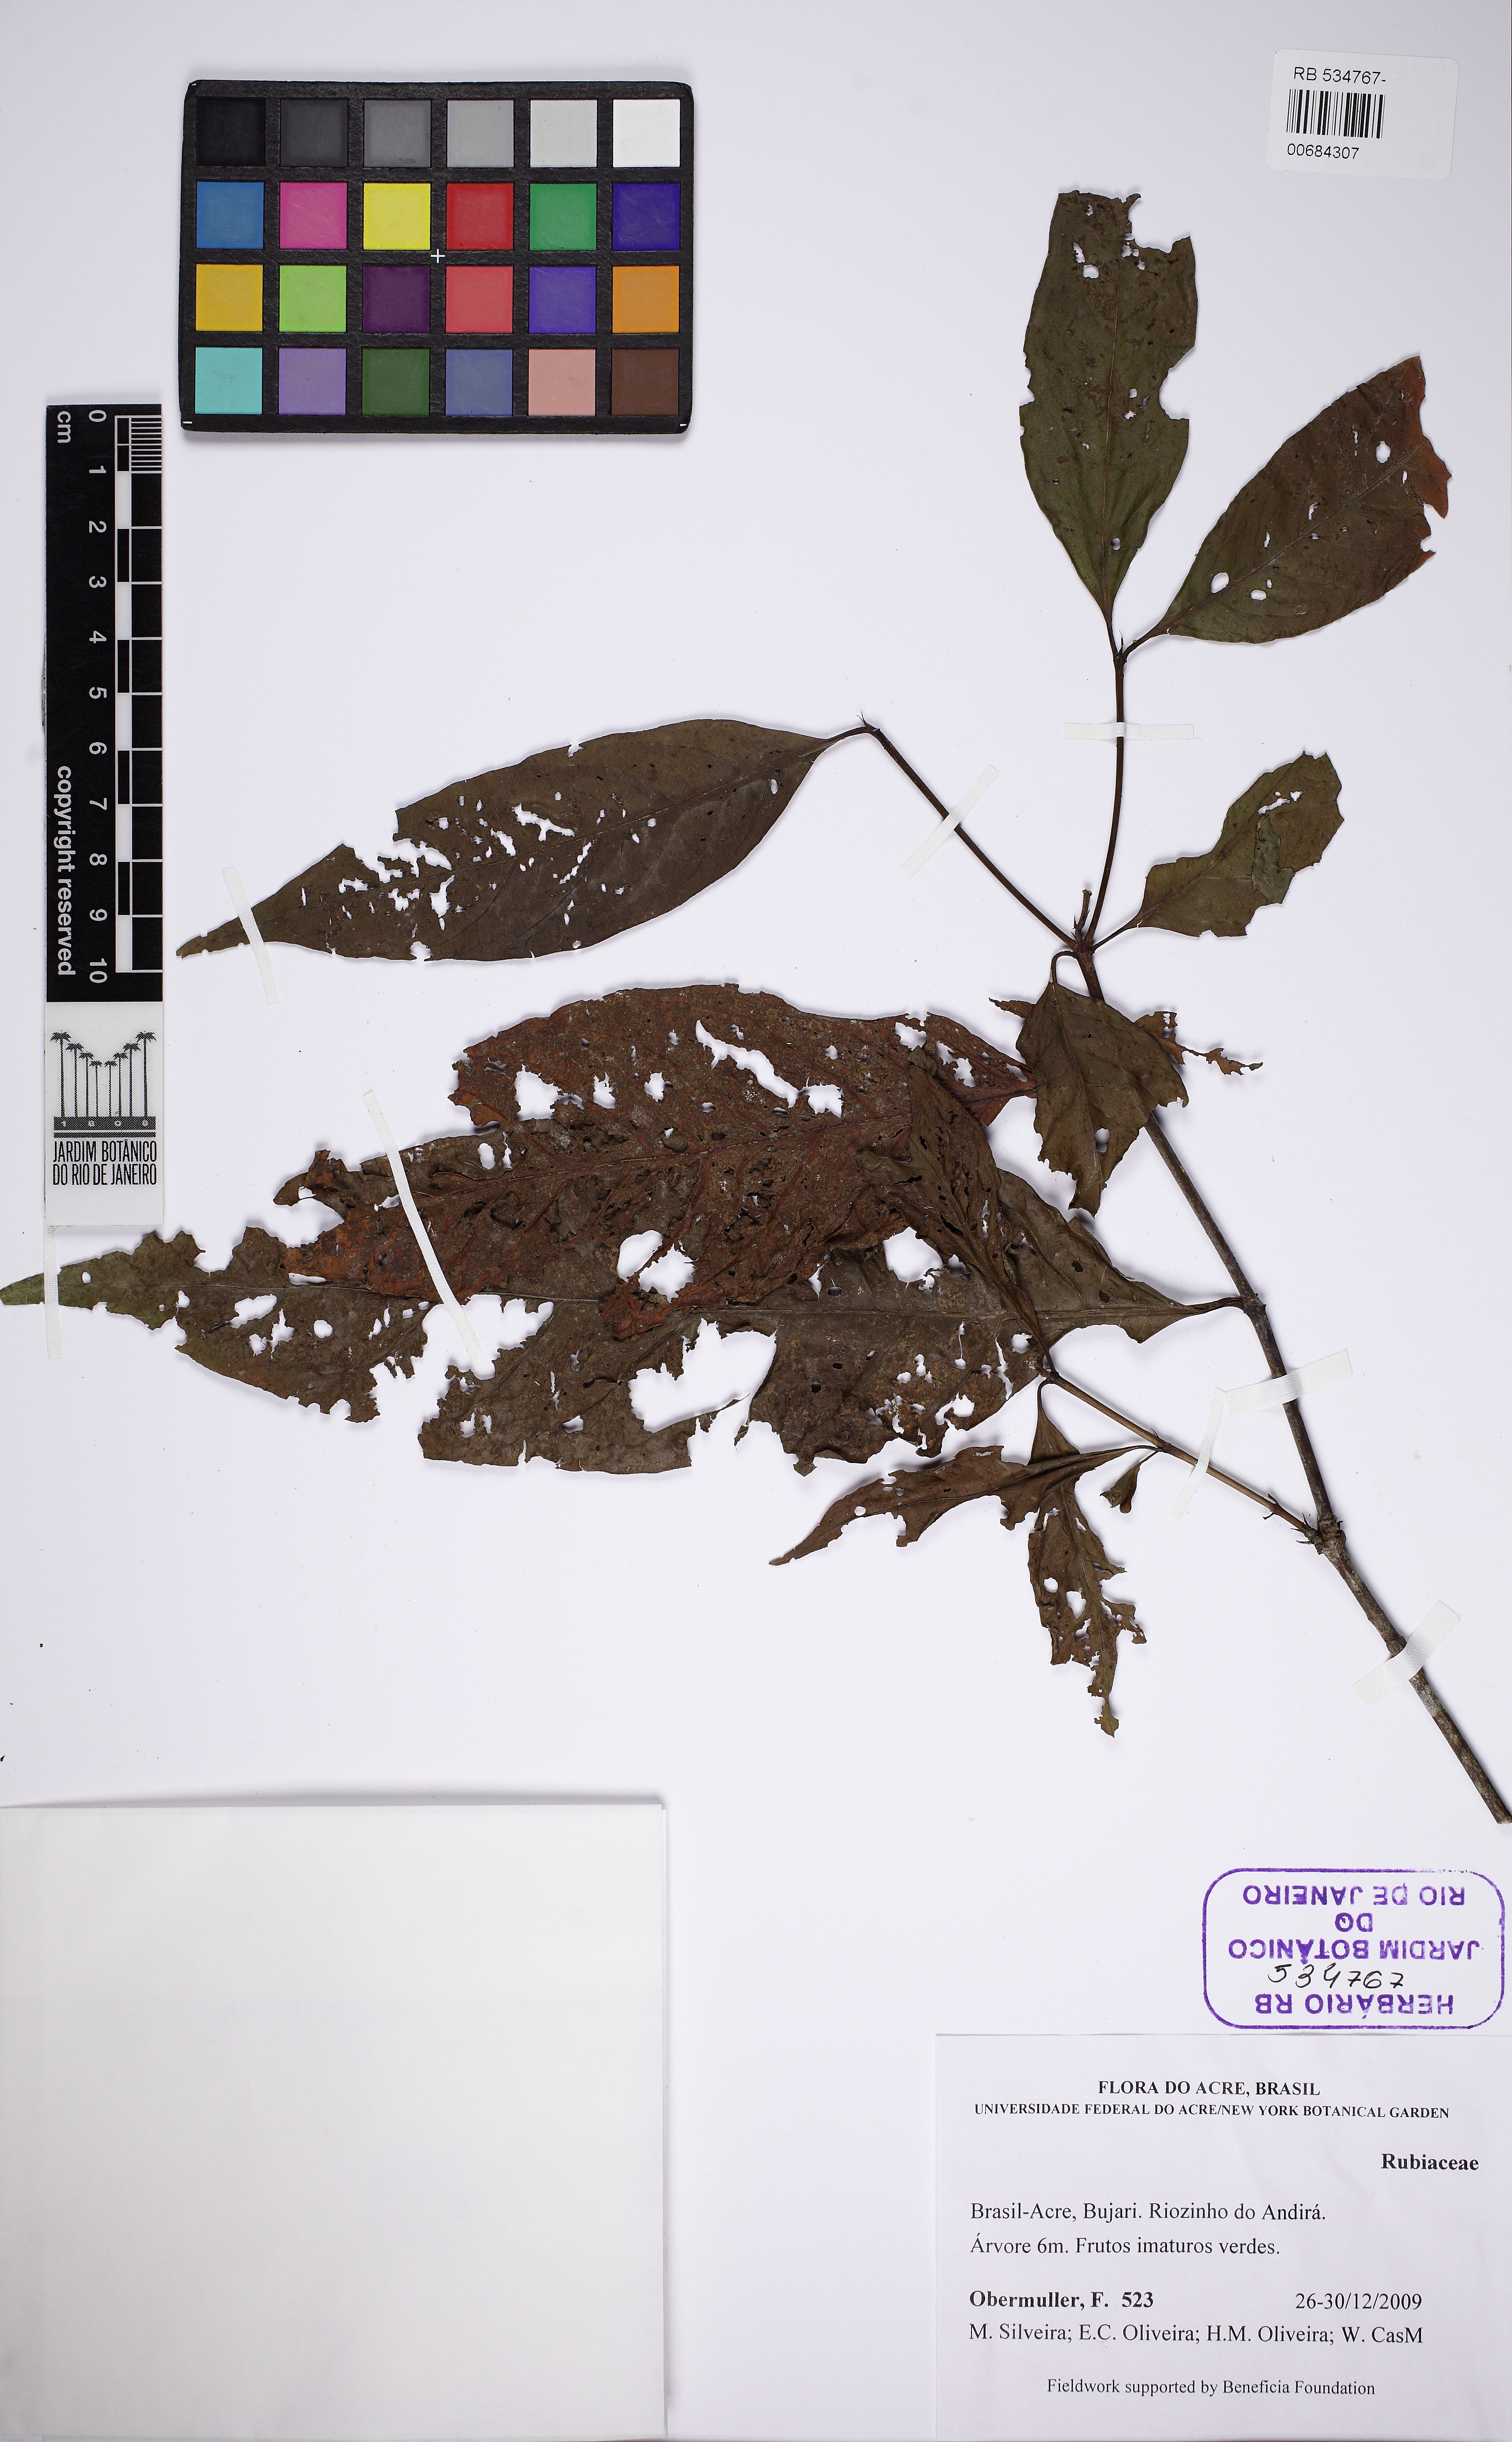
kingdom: Plantae
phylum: Tracheophyta
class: Magnoliopsida
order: Gentianales
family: Rubiaceae
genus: Cordiera
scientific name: Cordiera
